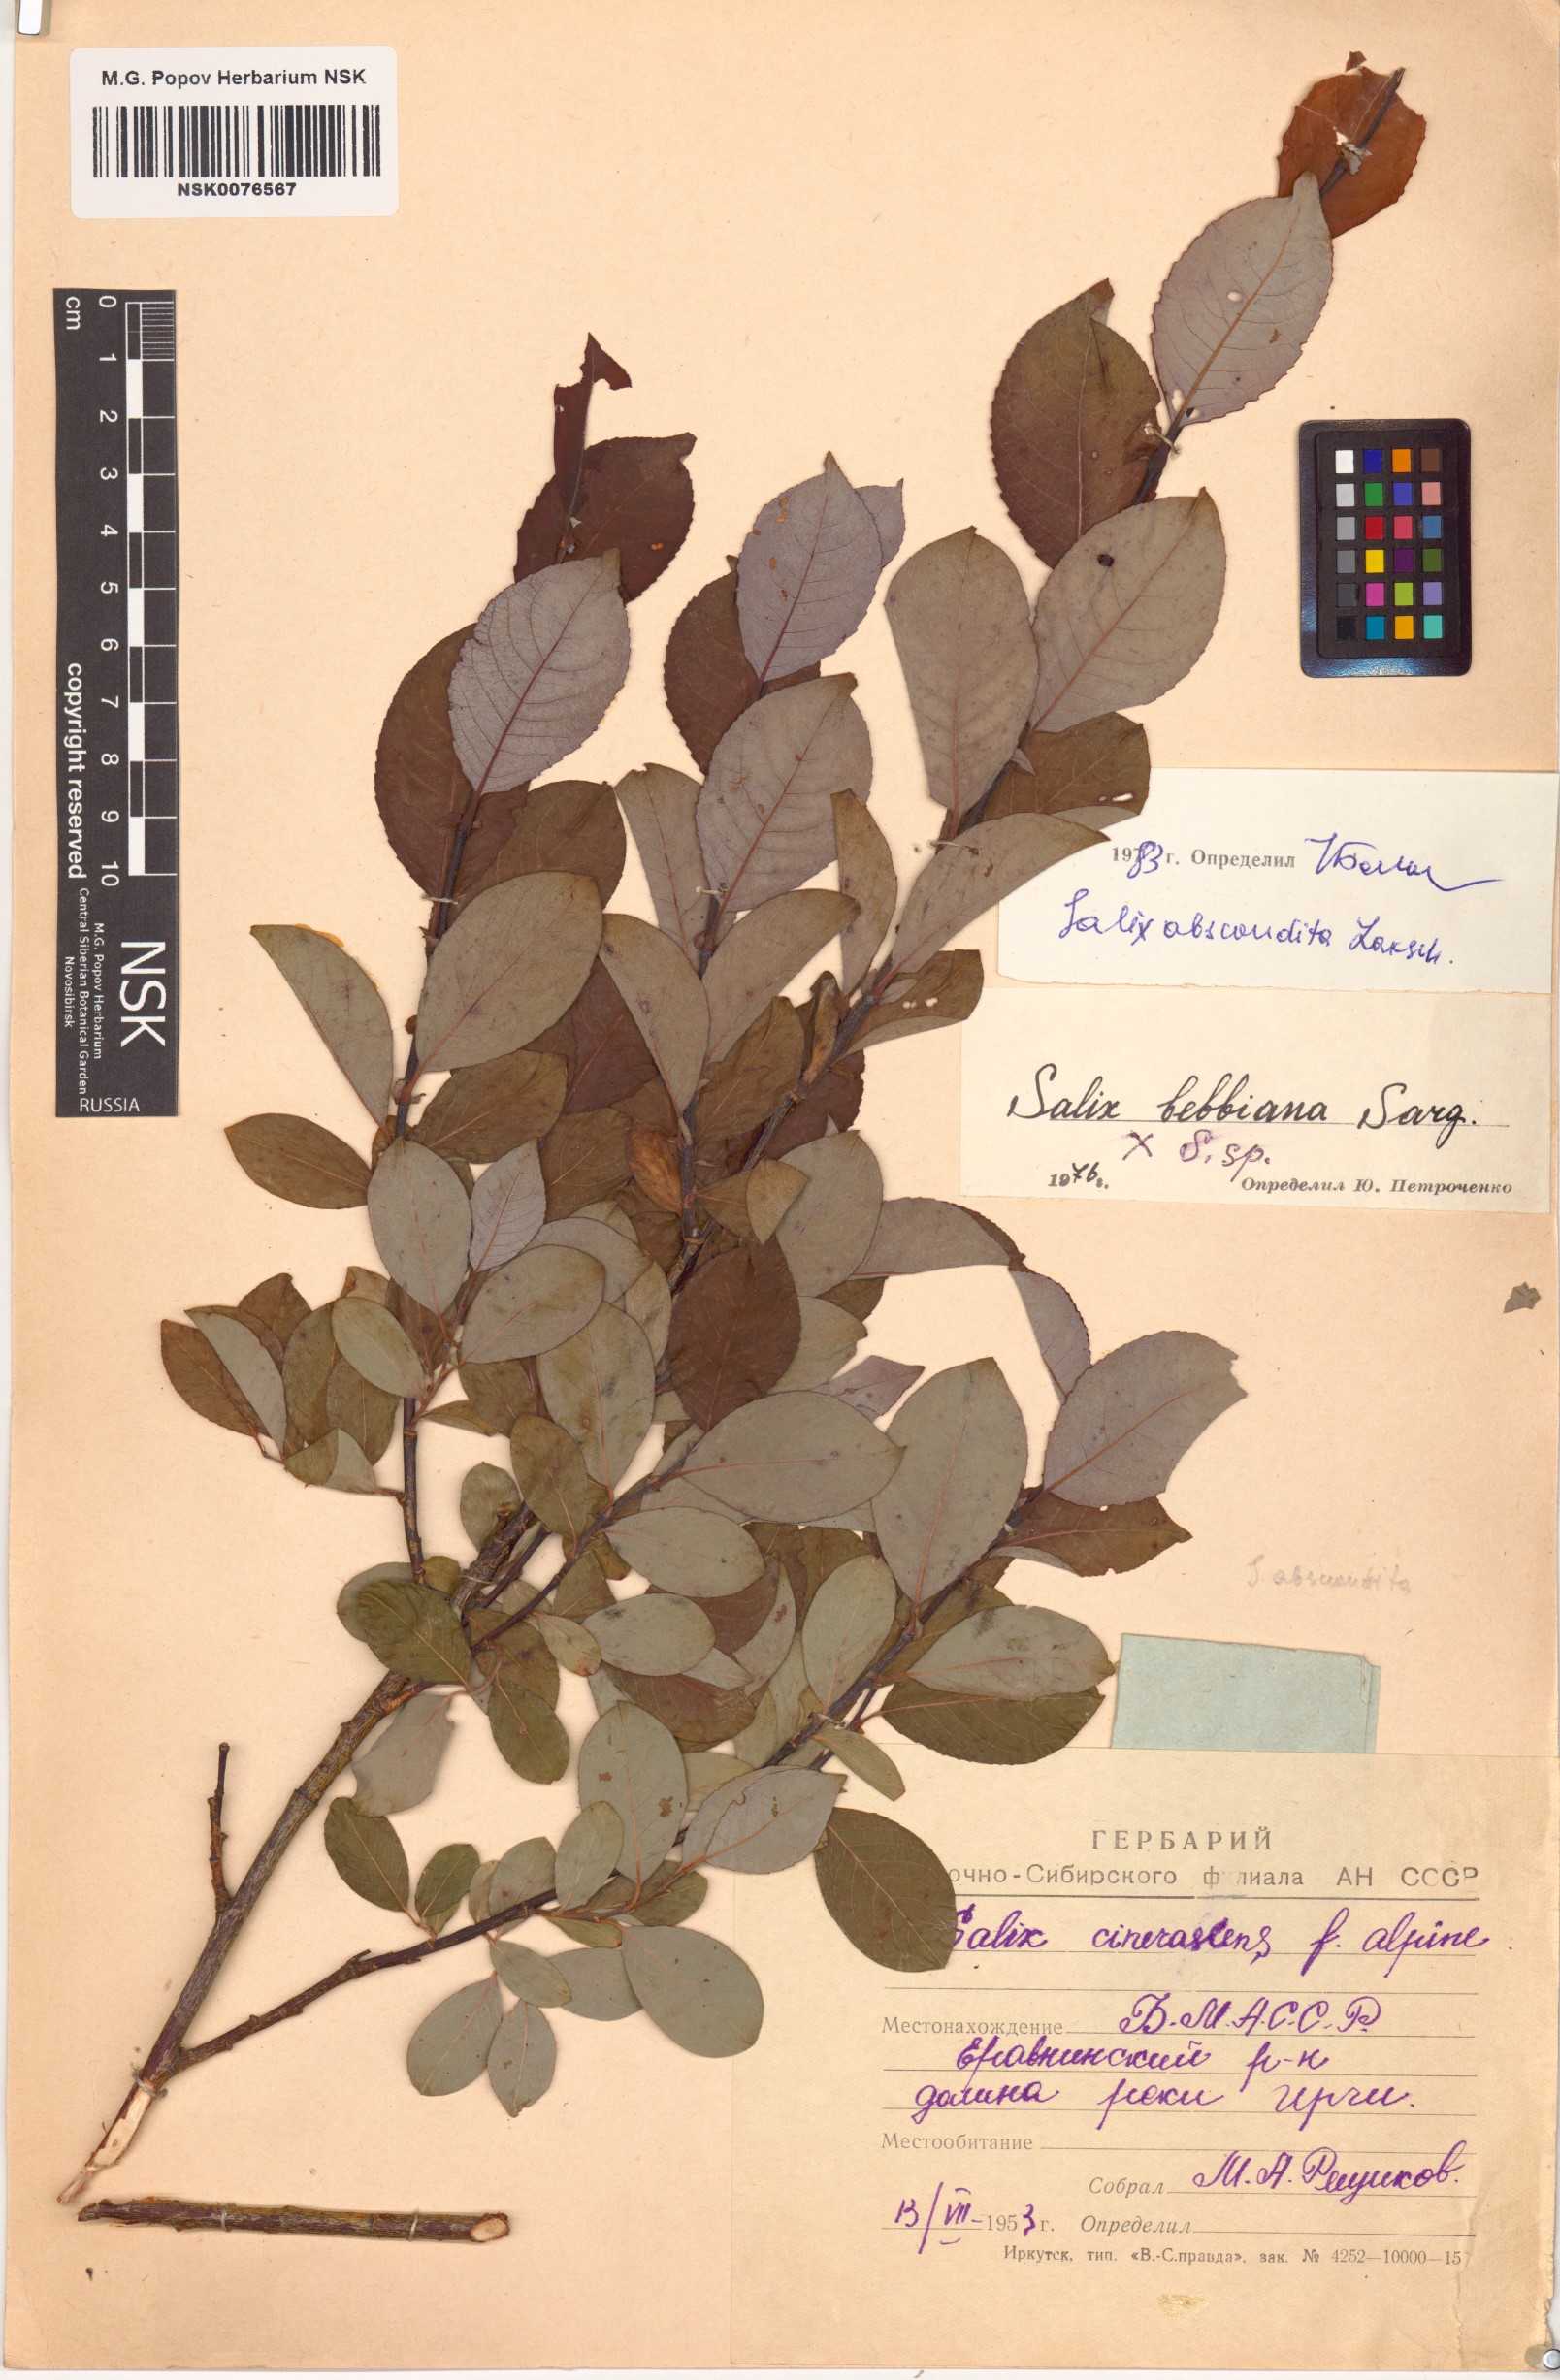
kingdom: Plantae
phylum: Tracheophyta
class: Magnoliopsida
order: Malpighiales
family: Salicaceae
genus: Salix
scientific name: Salix abscondita
